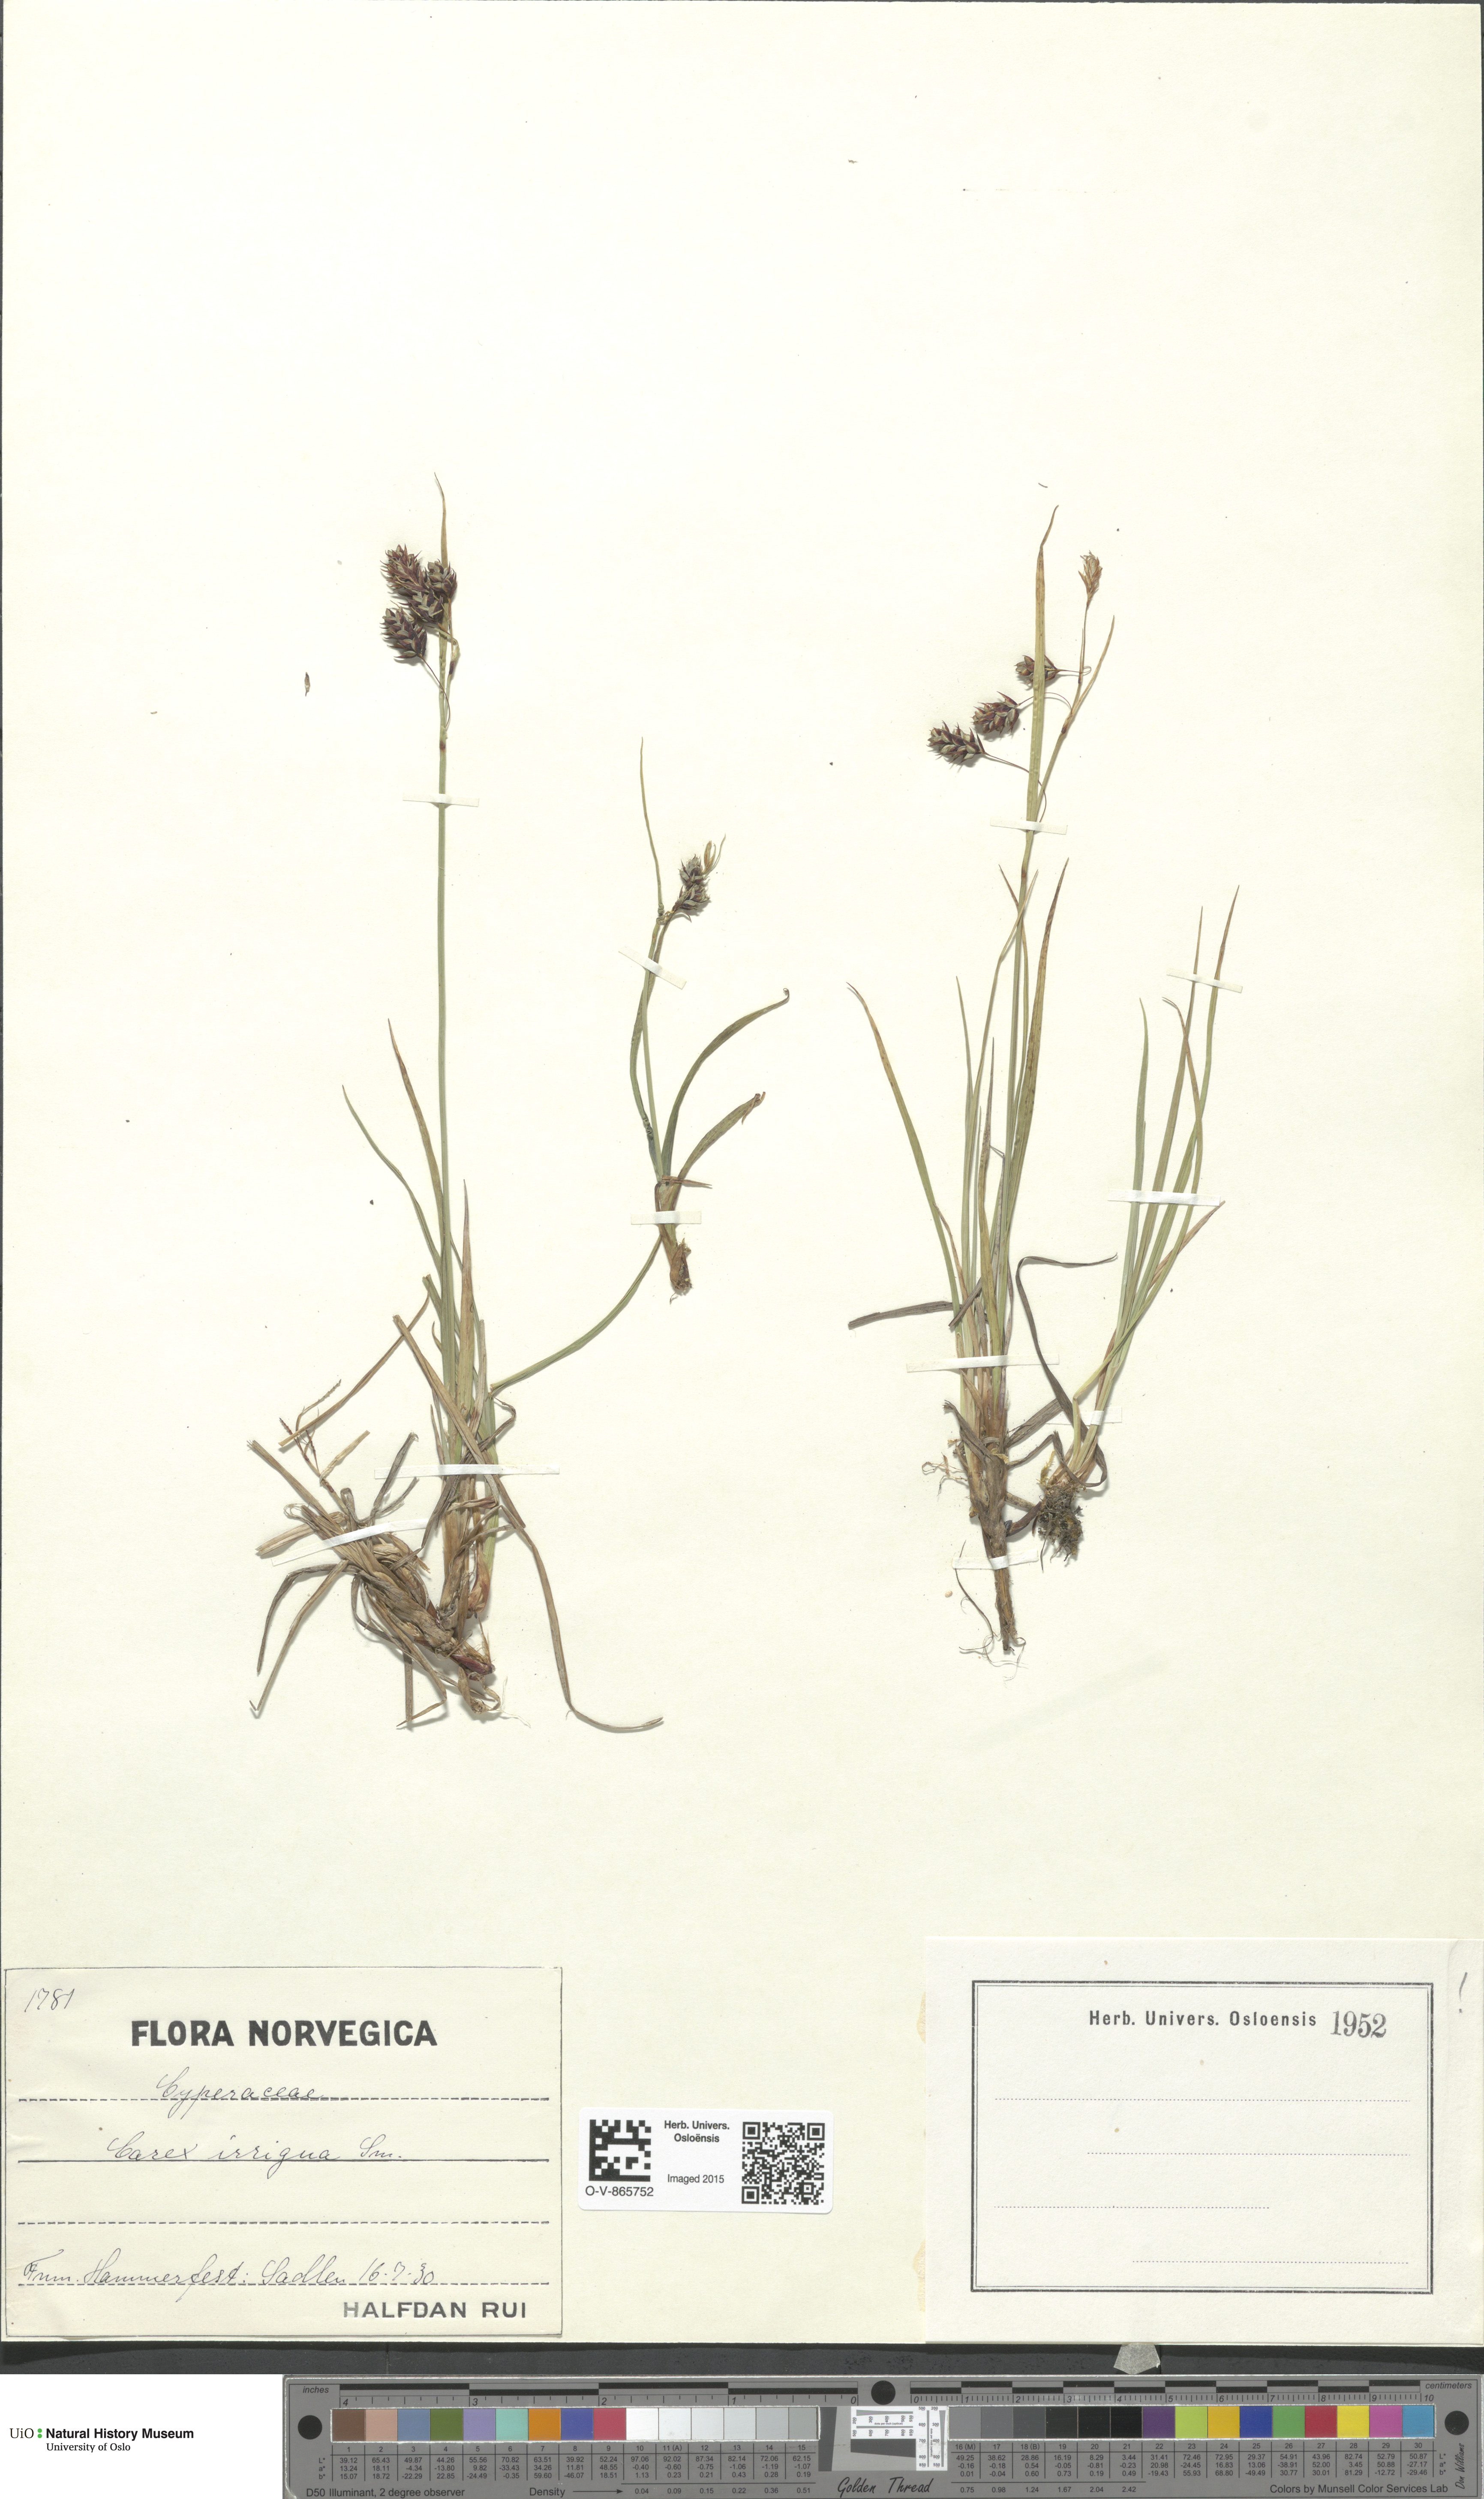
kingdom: Plantae
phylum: Tracheophyta
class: Liliopsida
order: Poales
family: Cyperaceae
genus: Carex
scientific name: Carex magellanica
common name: Bog sedge
